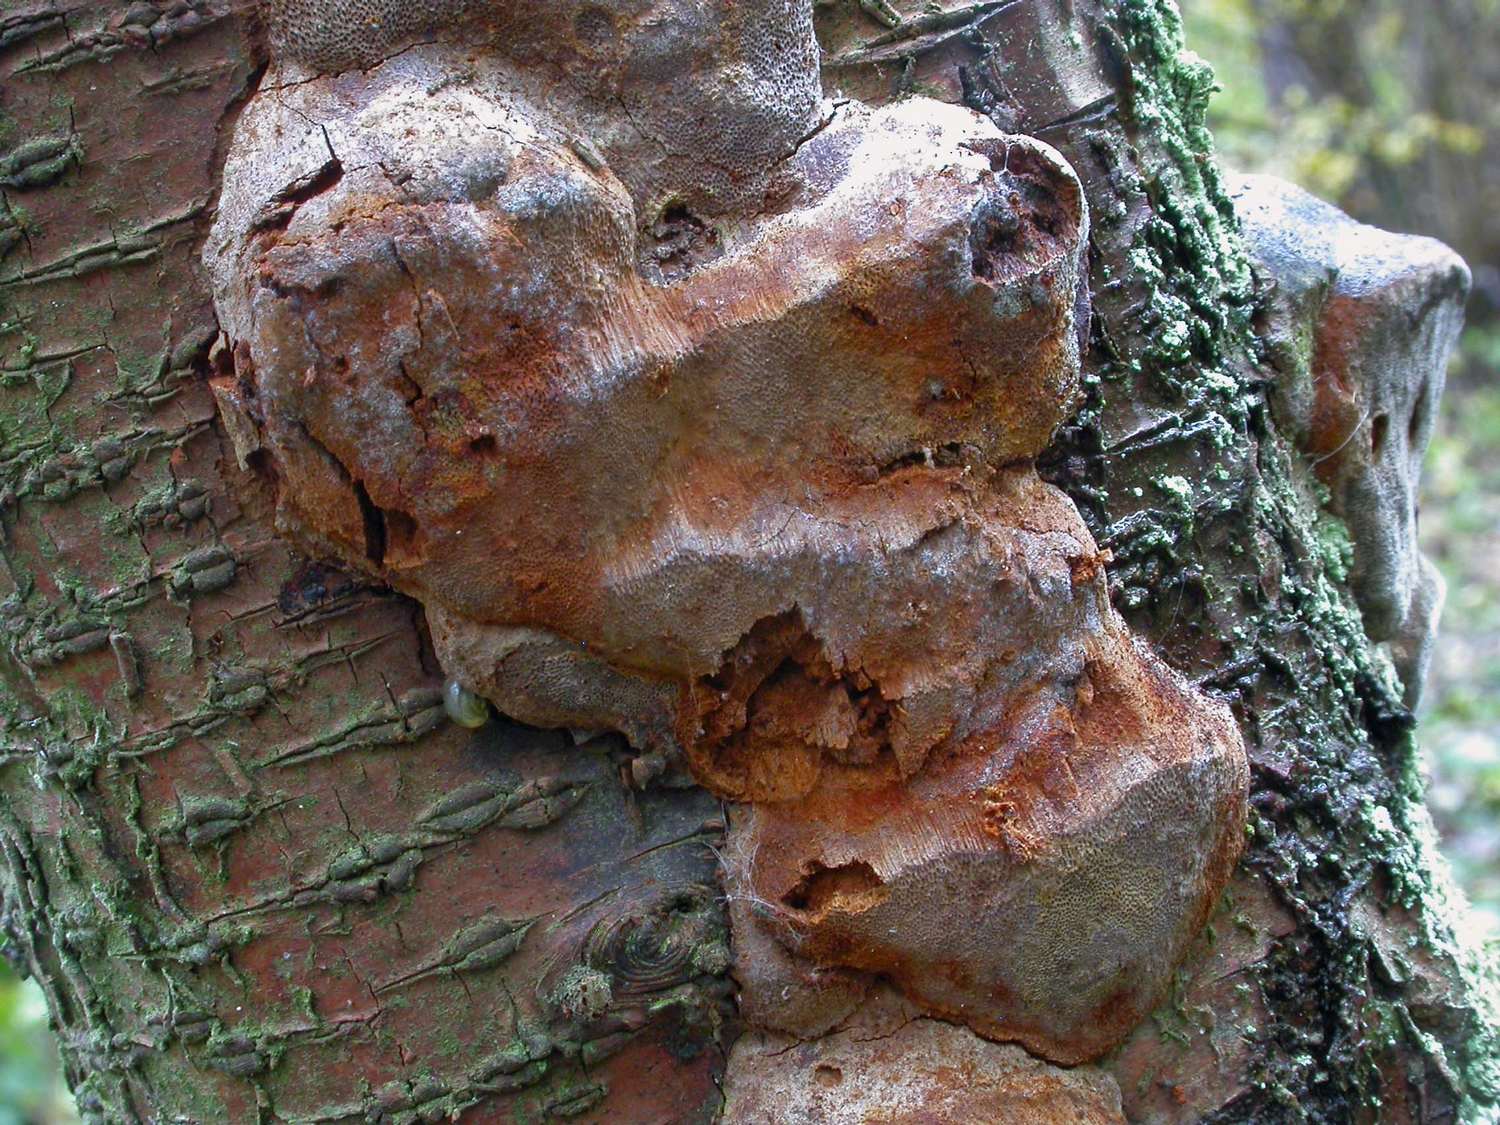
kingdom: Fungi
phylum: Basidiomycota
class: Agaricomycetes
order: Hymenochaetales
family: Hymenochaetaceae
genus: Phellinus
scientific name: Phellinus pomaceus
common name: blomme-ildporesvamp
